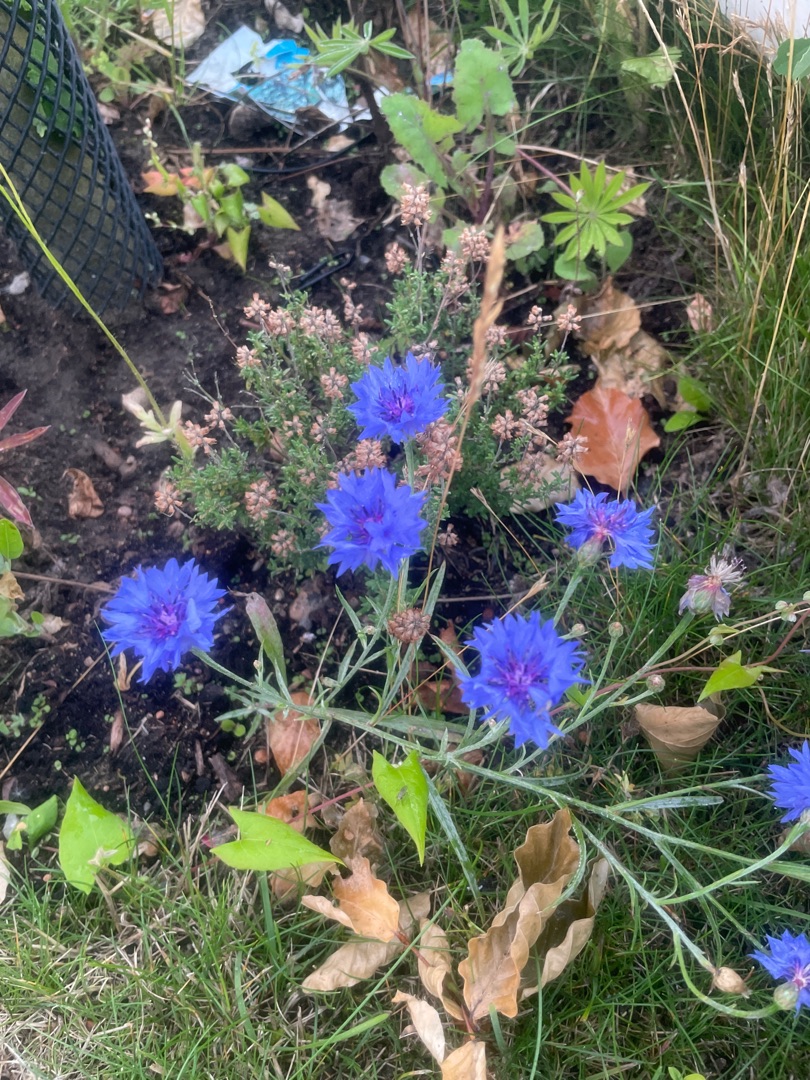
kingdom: Plantae
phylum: Tracheophyta
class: Magnoliopsida
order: Asterales
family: Asteraceae
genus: Centaurea
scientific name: Centaurea cyanus
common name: Kornblomst
